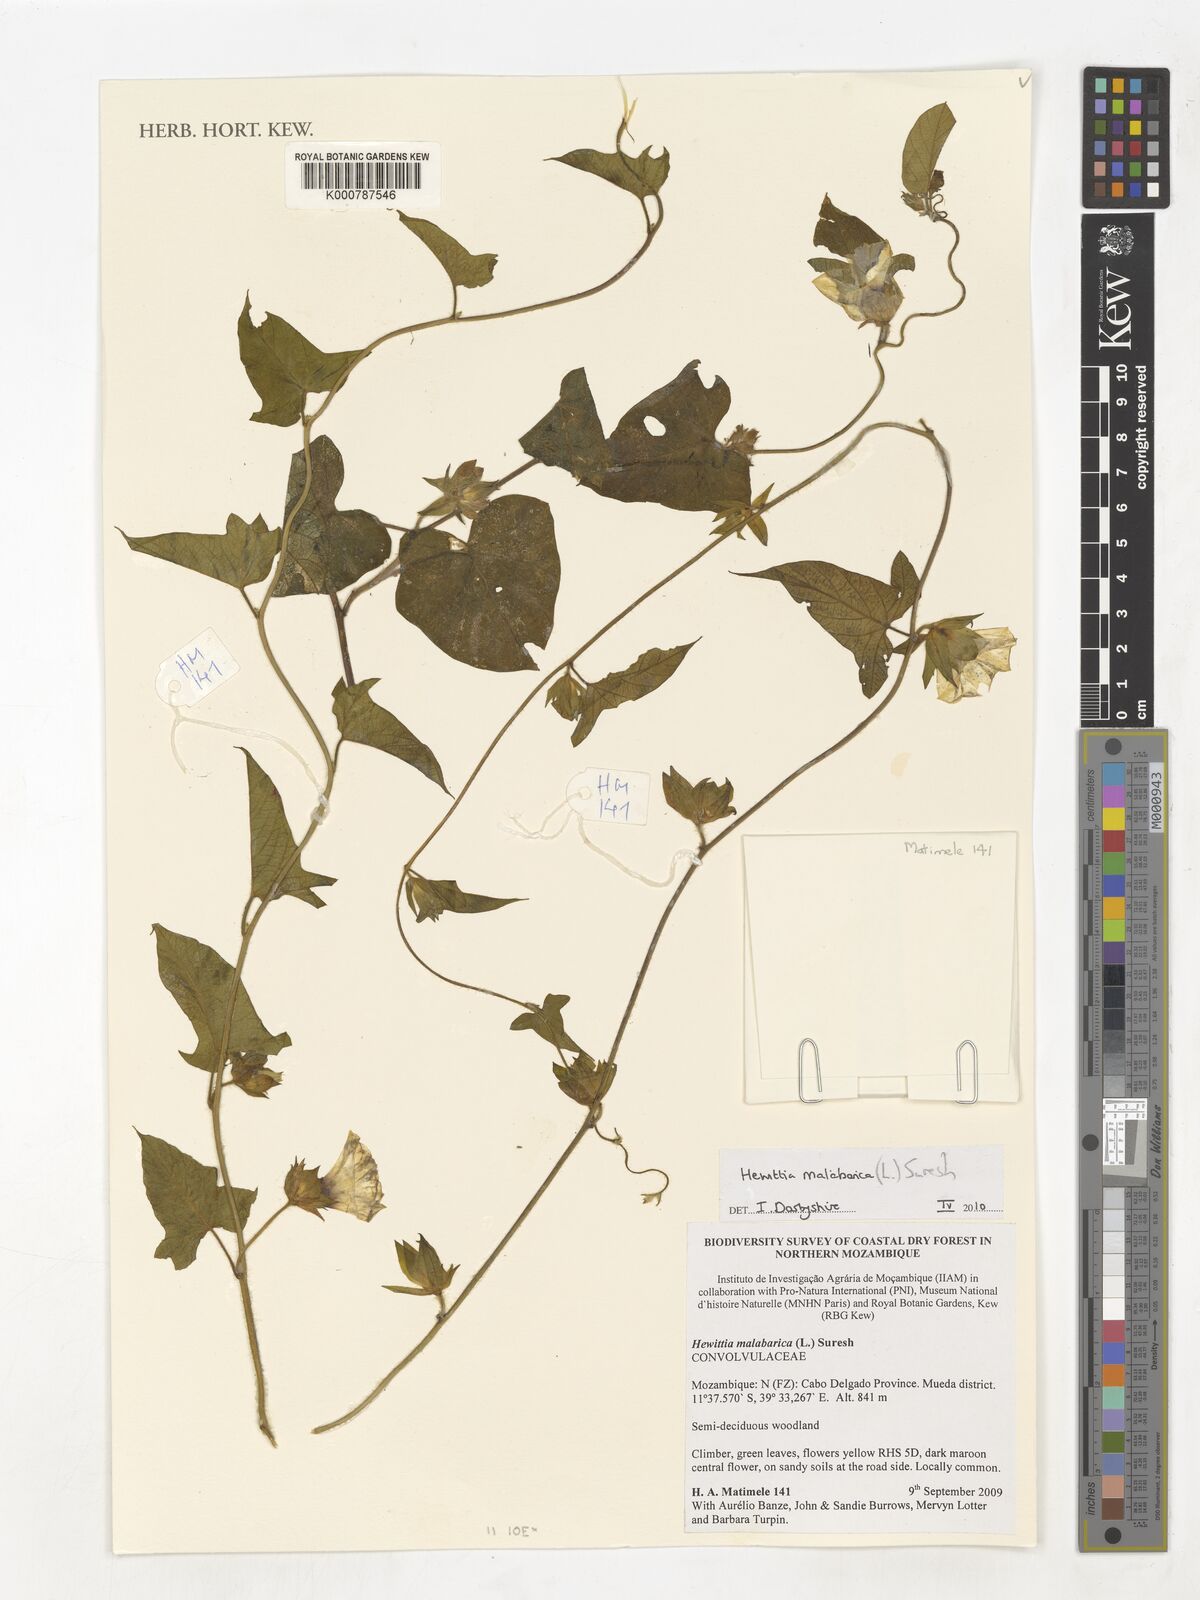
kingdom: Plantae
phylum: Tracheophyta
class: Liliopsida
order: Alismatales
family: Araceae
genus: Nabalu
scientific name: Nabalu corneri
